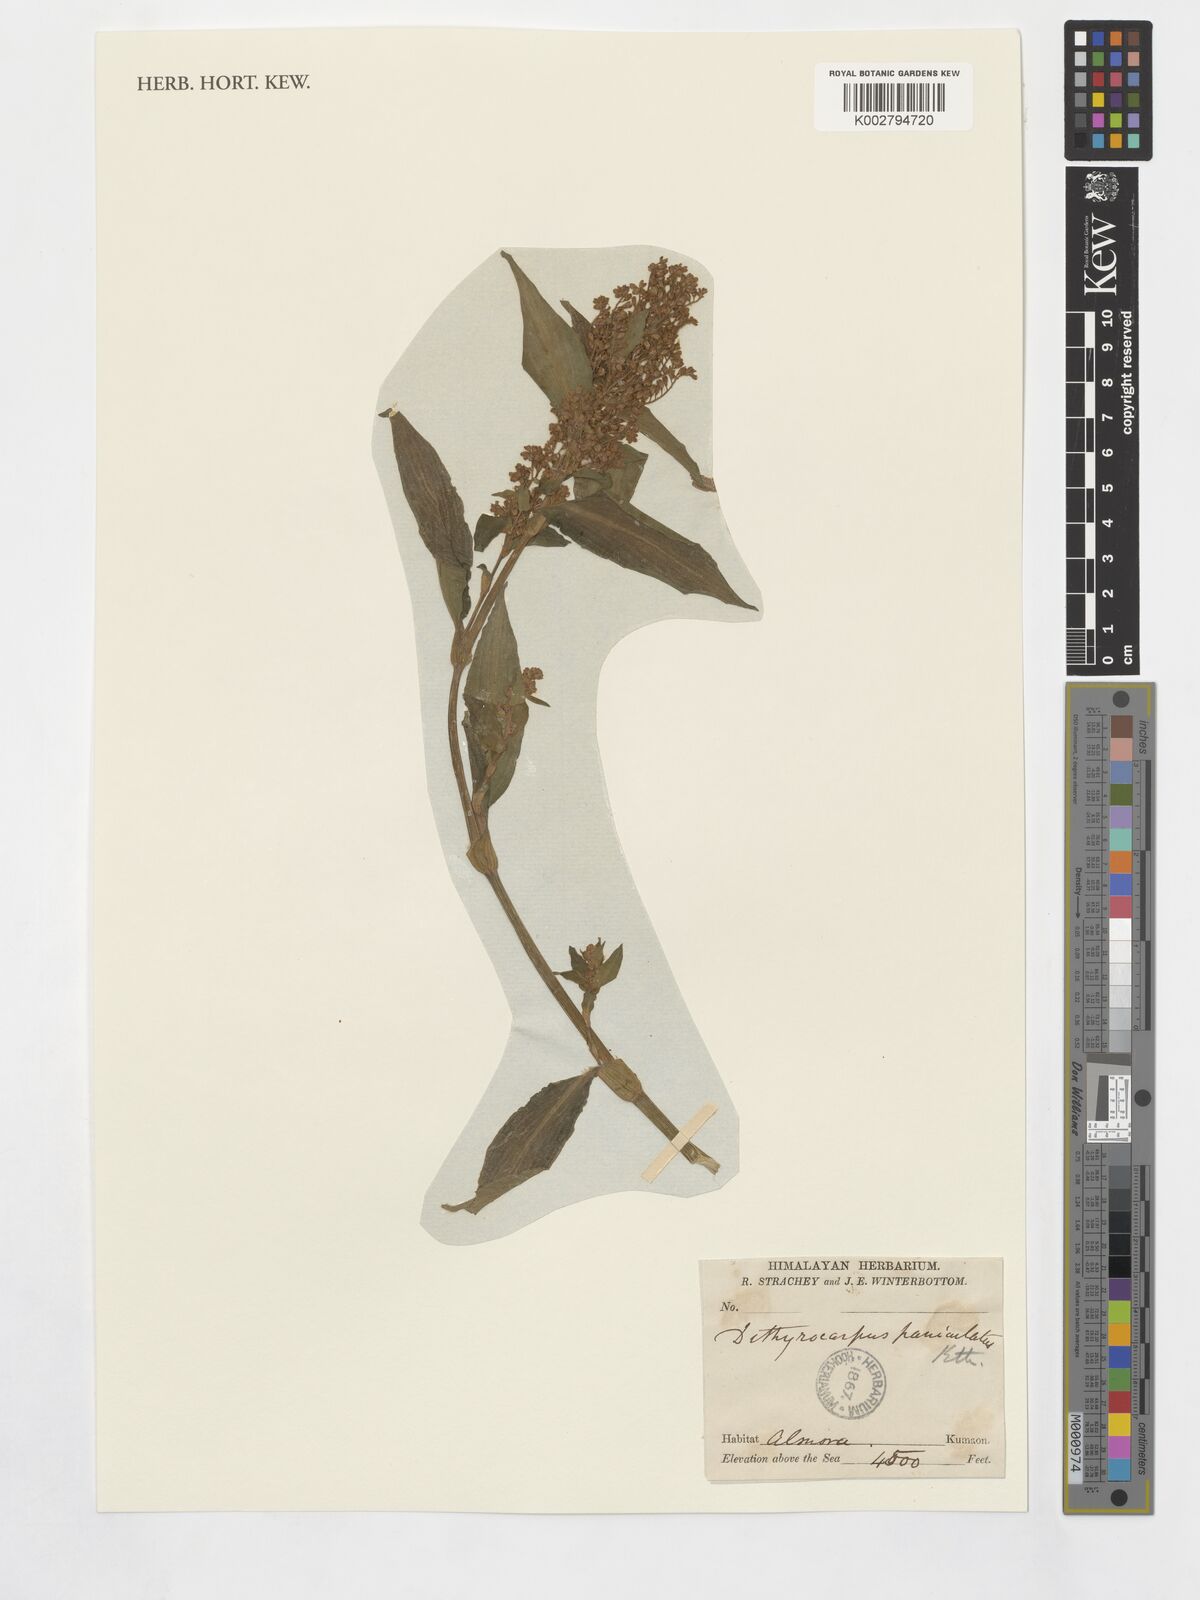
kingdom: Plantae
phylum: Tracheophyta
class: Liliopsida
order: Commelinales
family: Commelinaceae
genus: Floscopa
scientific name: Floscopa scandens
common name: Climbing flower cup
